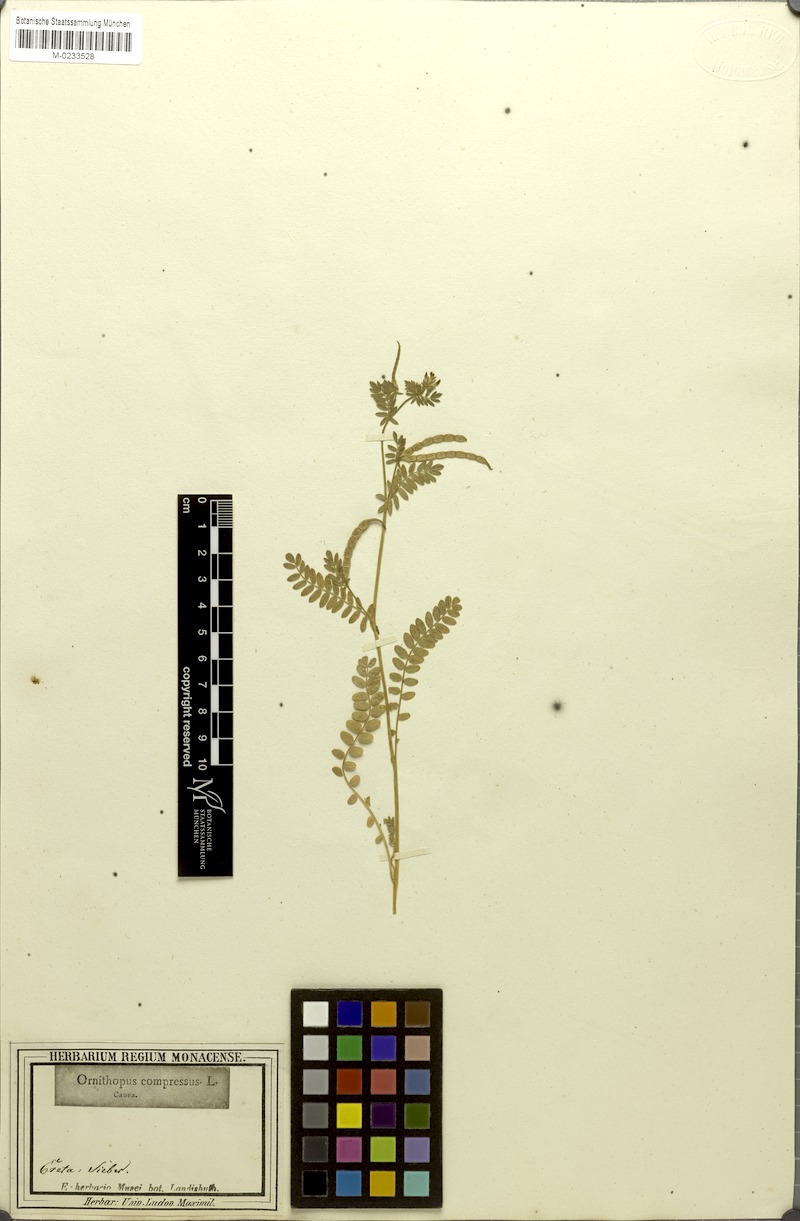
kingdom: Plantae
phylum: Tracheophyta
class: Magnoliopsida
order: Fabales
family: Fabaceae
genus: Ornithopus
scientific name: Ornithopus compressus
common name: Yellow serradella
